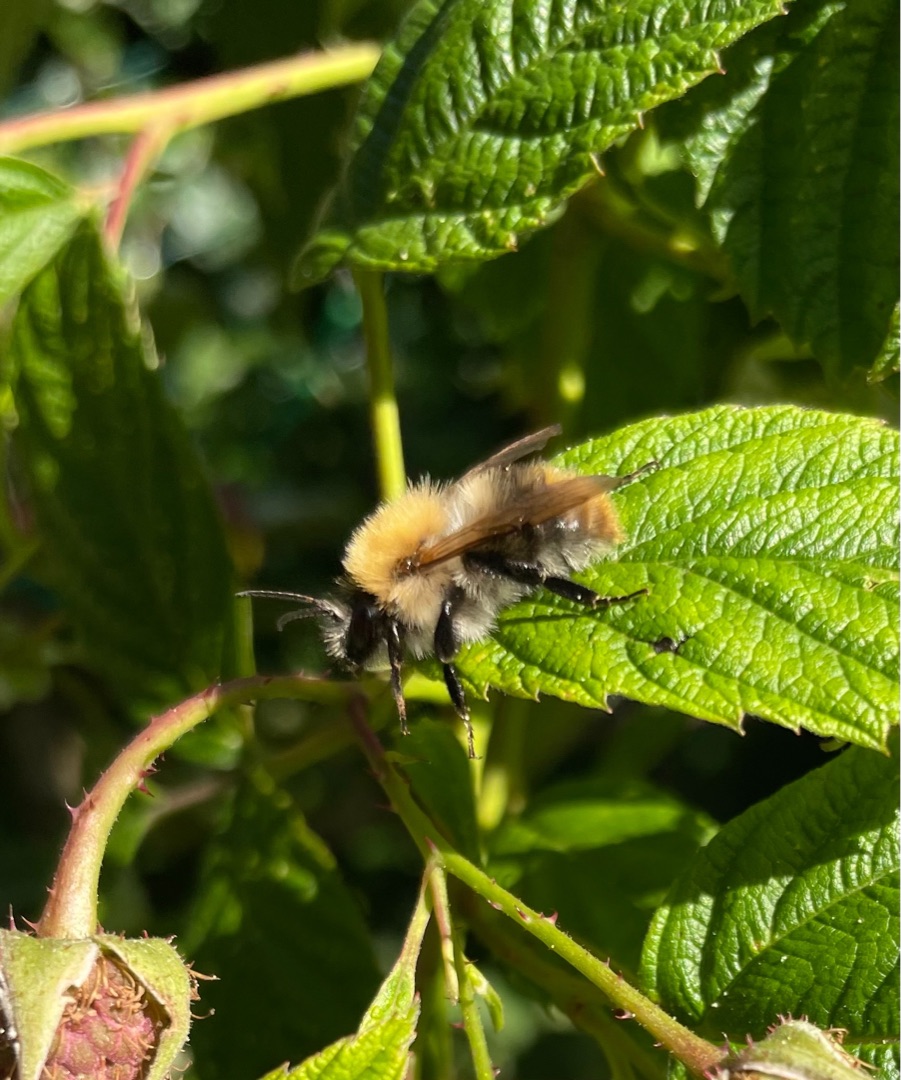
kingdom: Animalia
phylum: Arthropoda
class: Insecta
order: Hymenoptera
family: Apidae
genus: Bombus
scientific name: Bombus pascuorum
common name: Agerhumle
